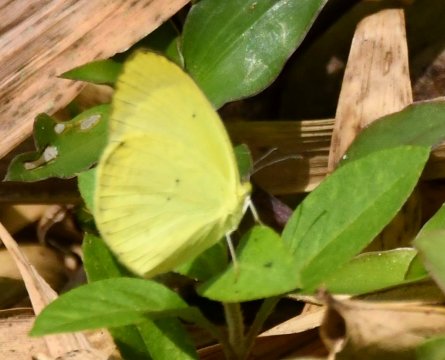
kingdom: Animalia
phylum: Arthropoda
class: Insecta
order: Lepidoptera
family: Pieridae
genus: Pyrisitia
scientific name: Pyrisitia nise
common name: Mimosa Yellow
